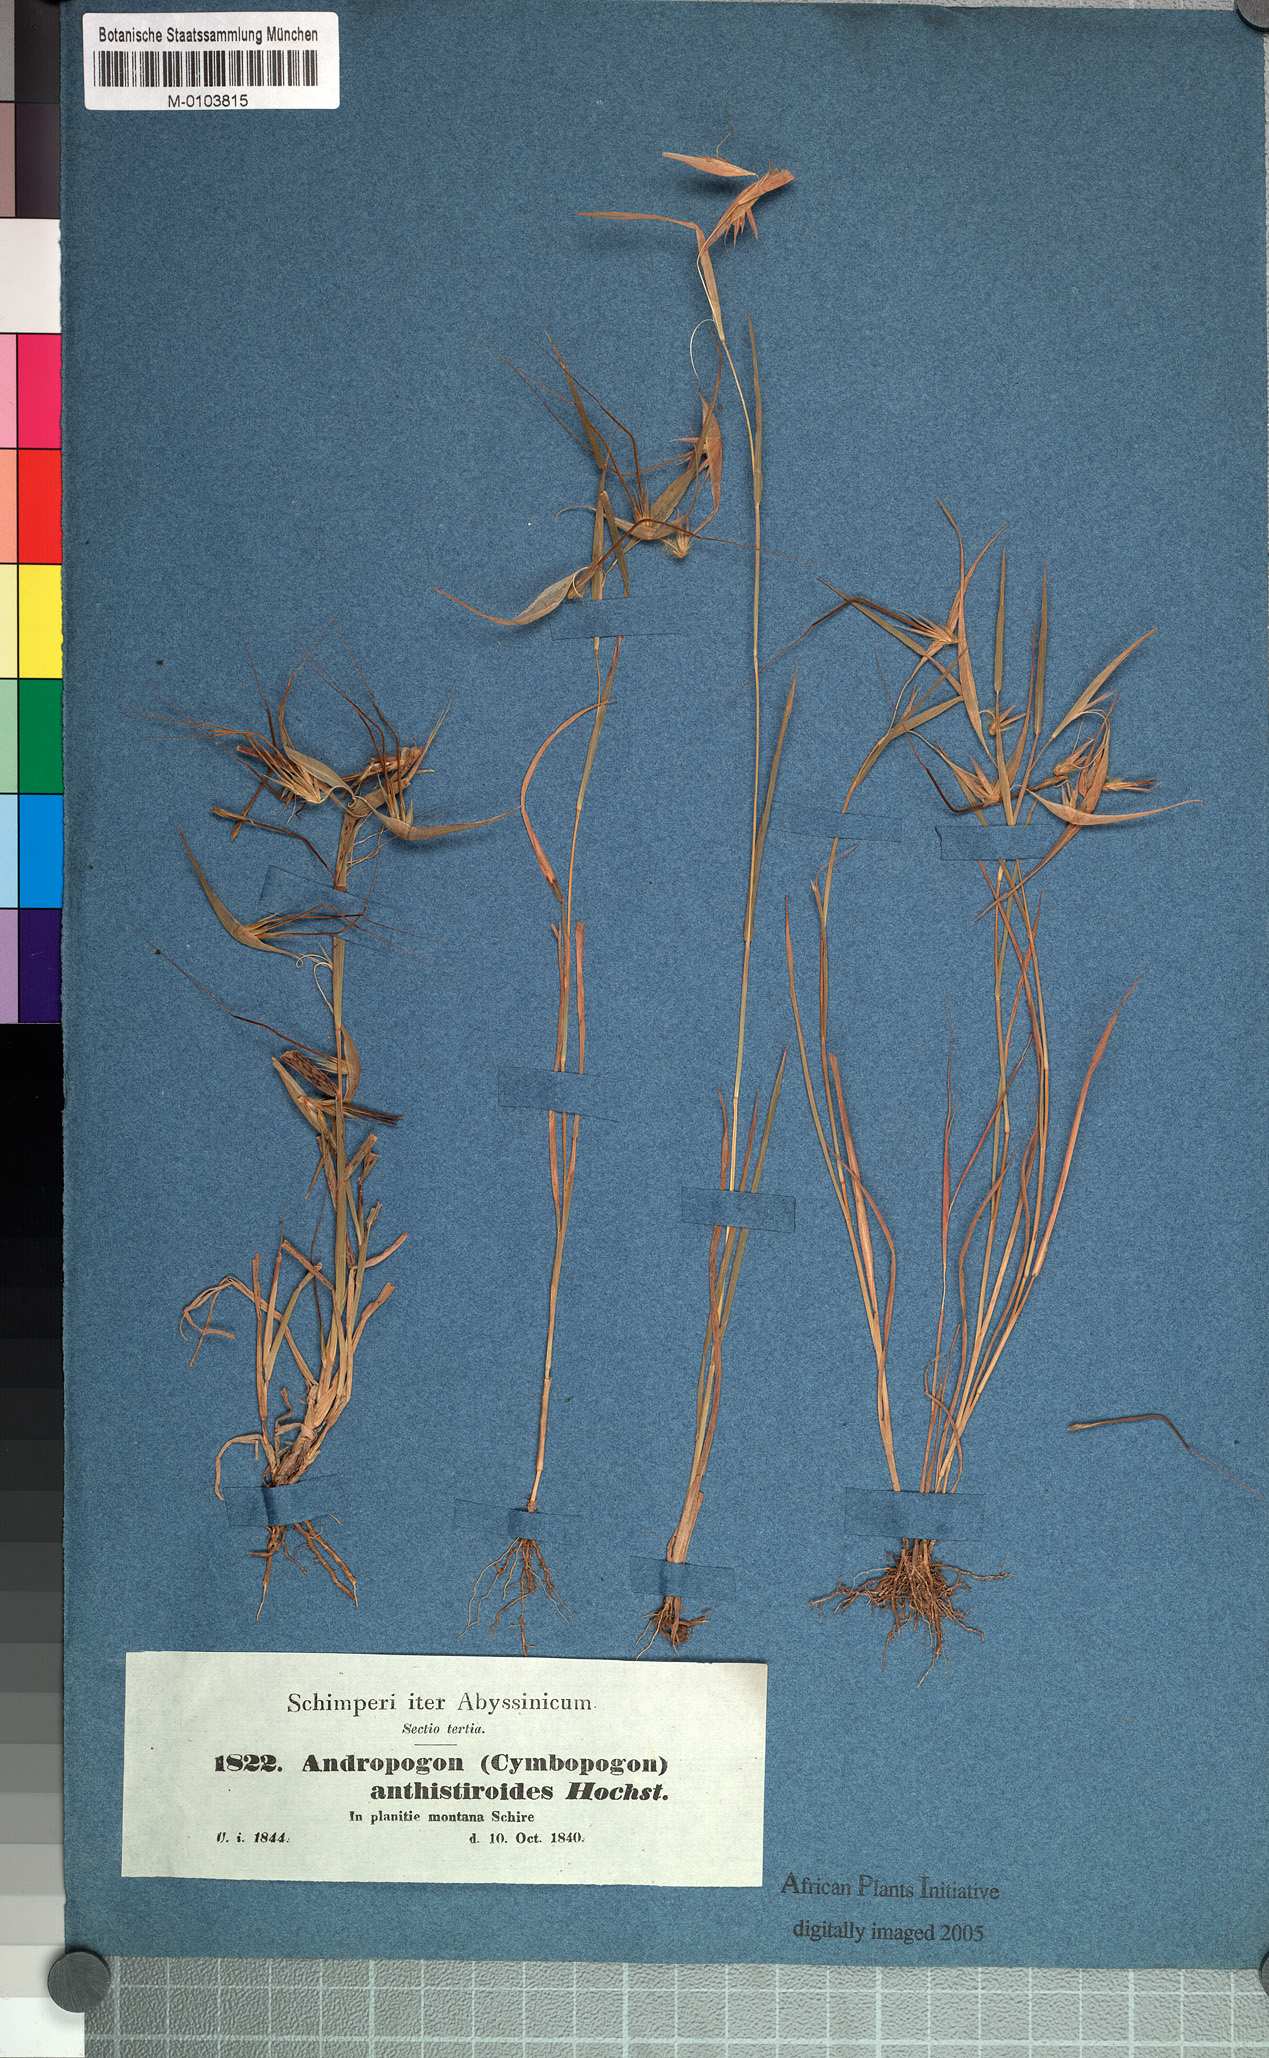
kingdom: Plantae
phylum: Tracheophyta
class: Liliopsida
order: Poales
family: Poaceae
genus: Hyparrhenia
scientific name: Hyparrhenia anthistirioides
